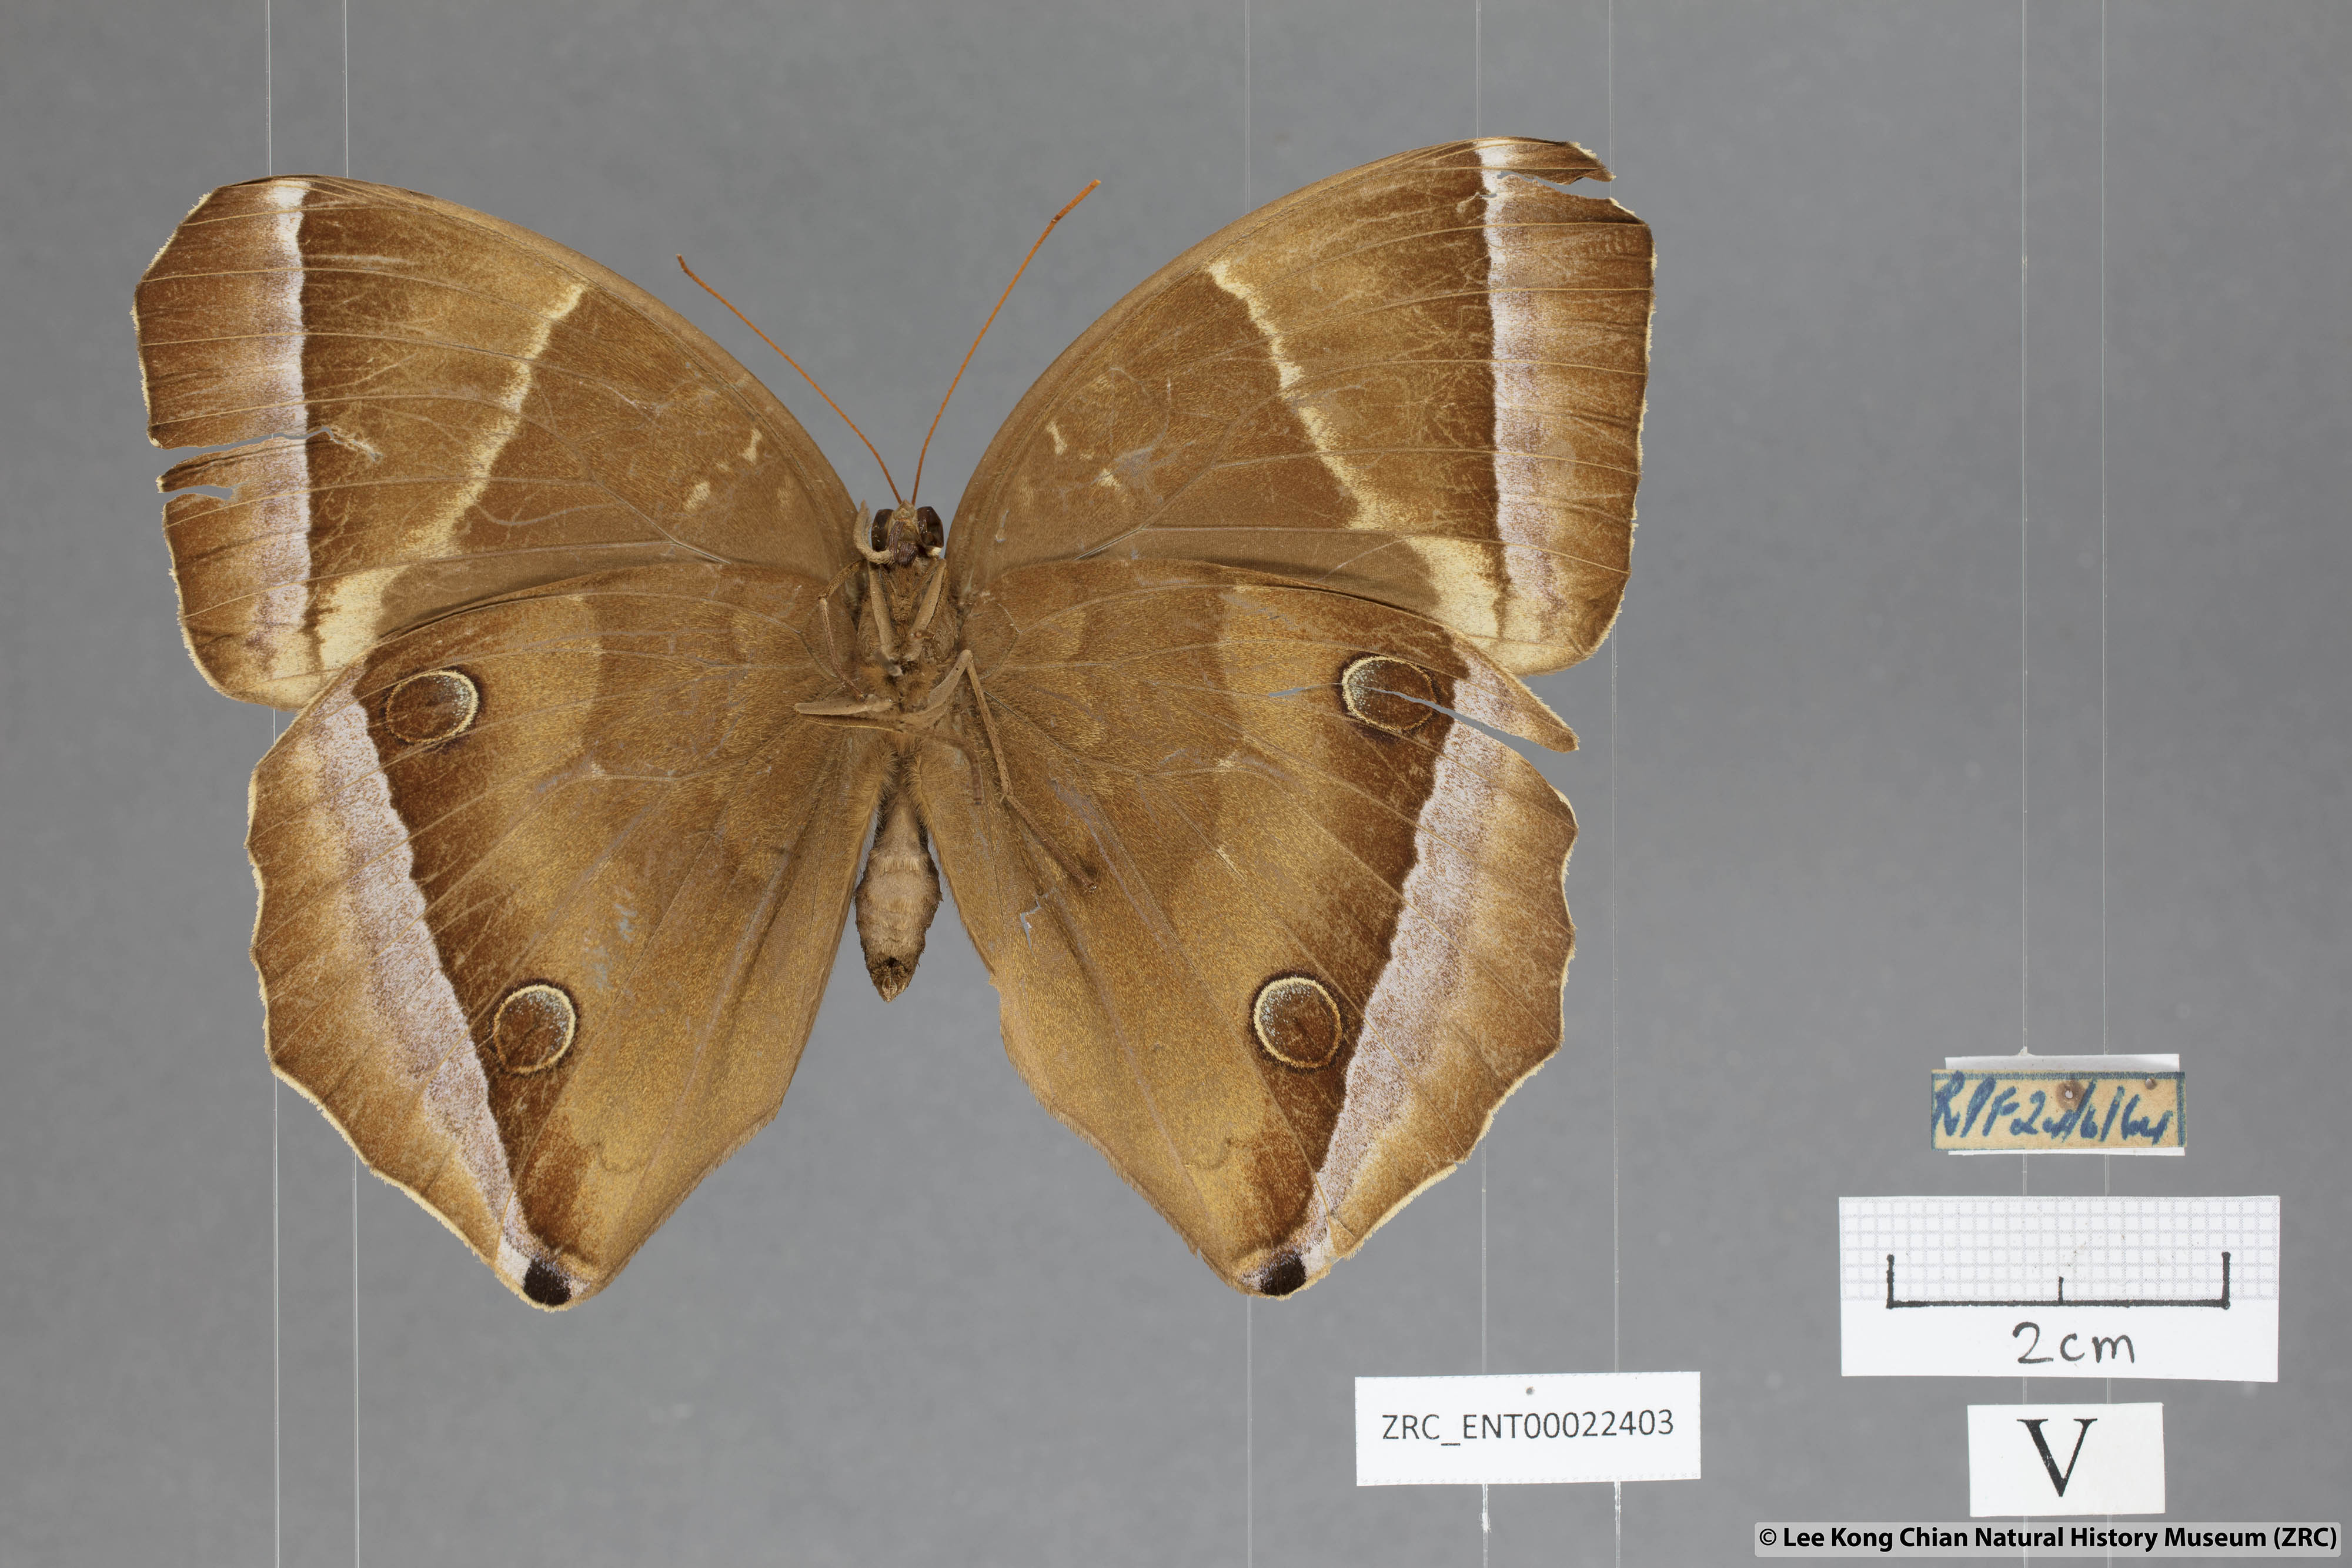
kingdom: Animalia
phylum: Arthropoda
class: Insecta
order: Lepidoptera
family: Nymphalidae
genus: Thaumantis
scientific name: Thaumantis noureddin
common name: Dark jungle glory
